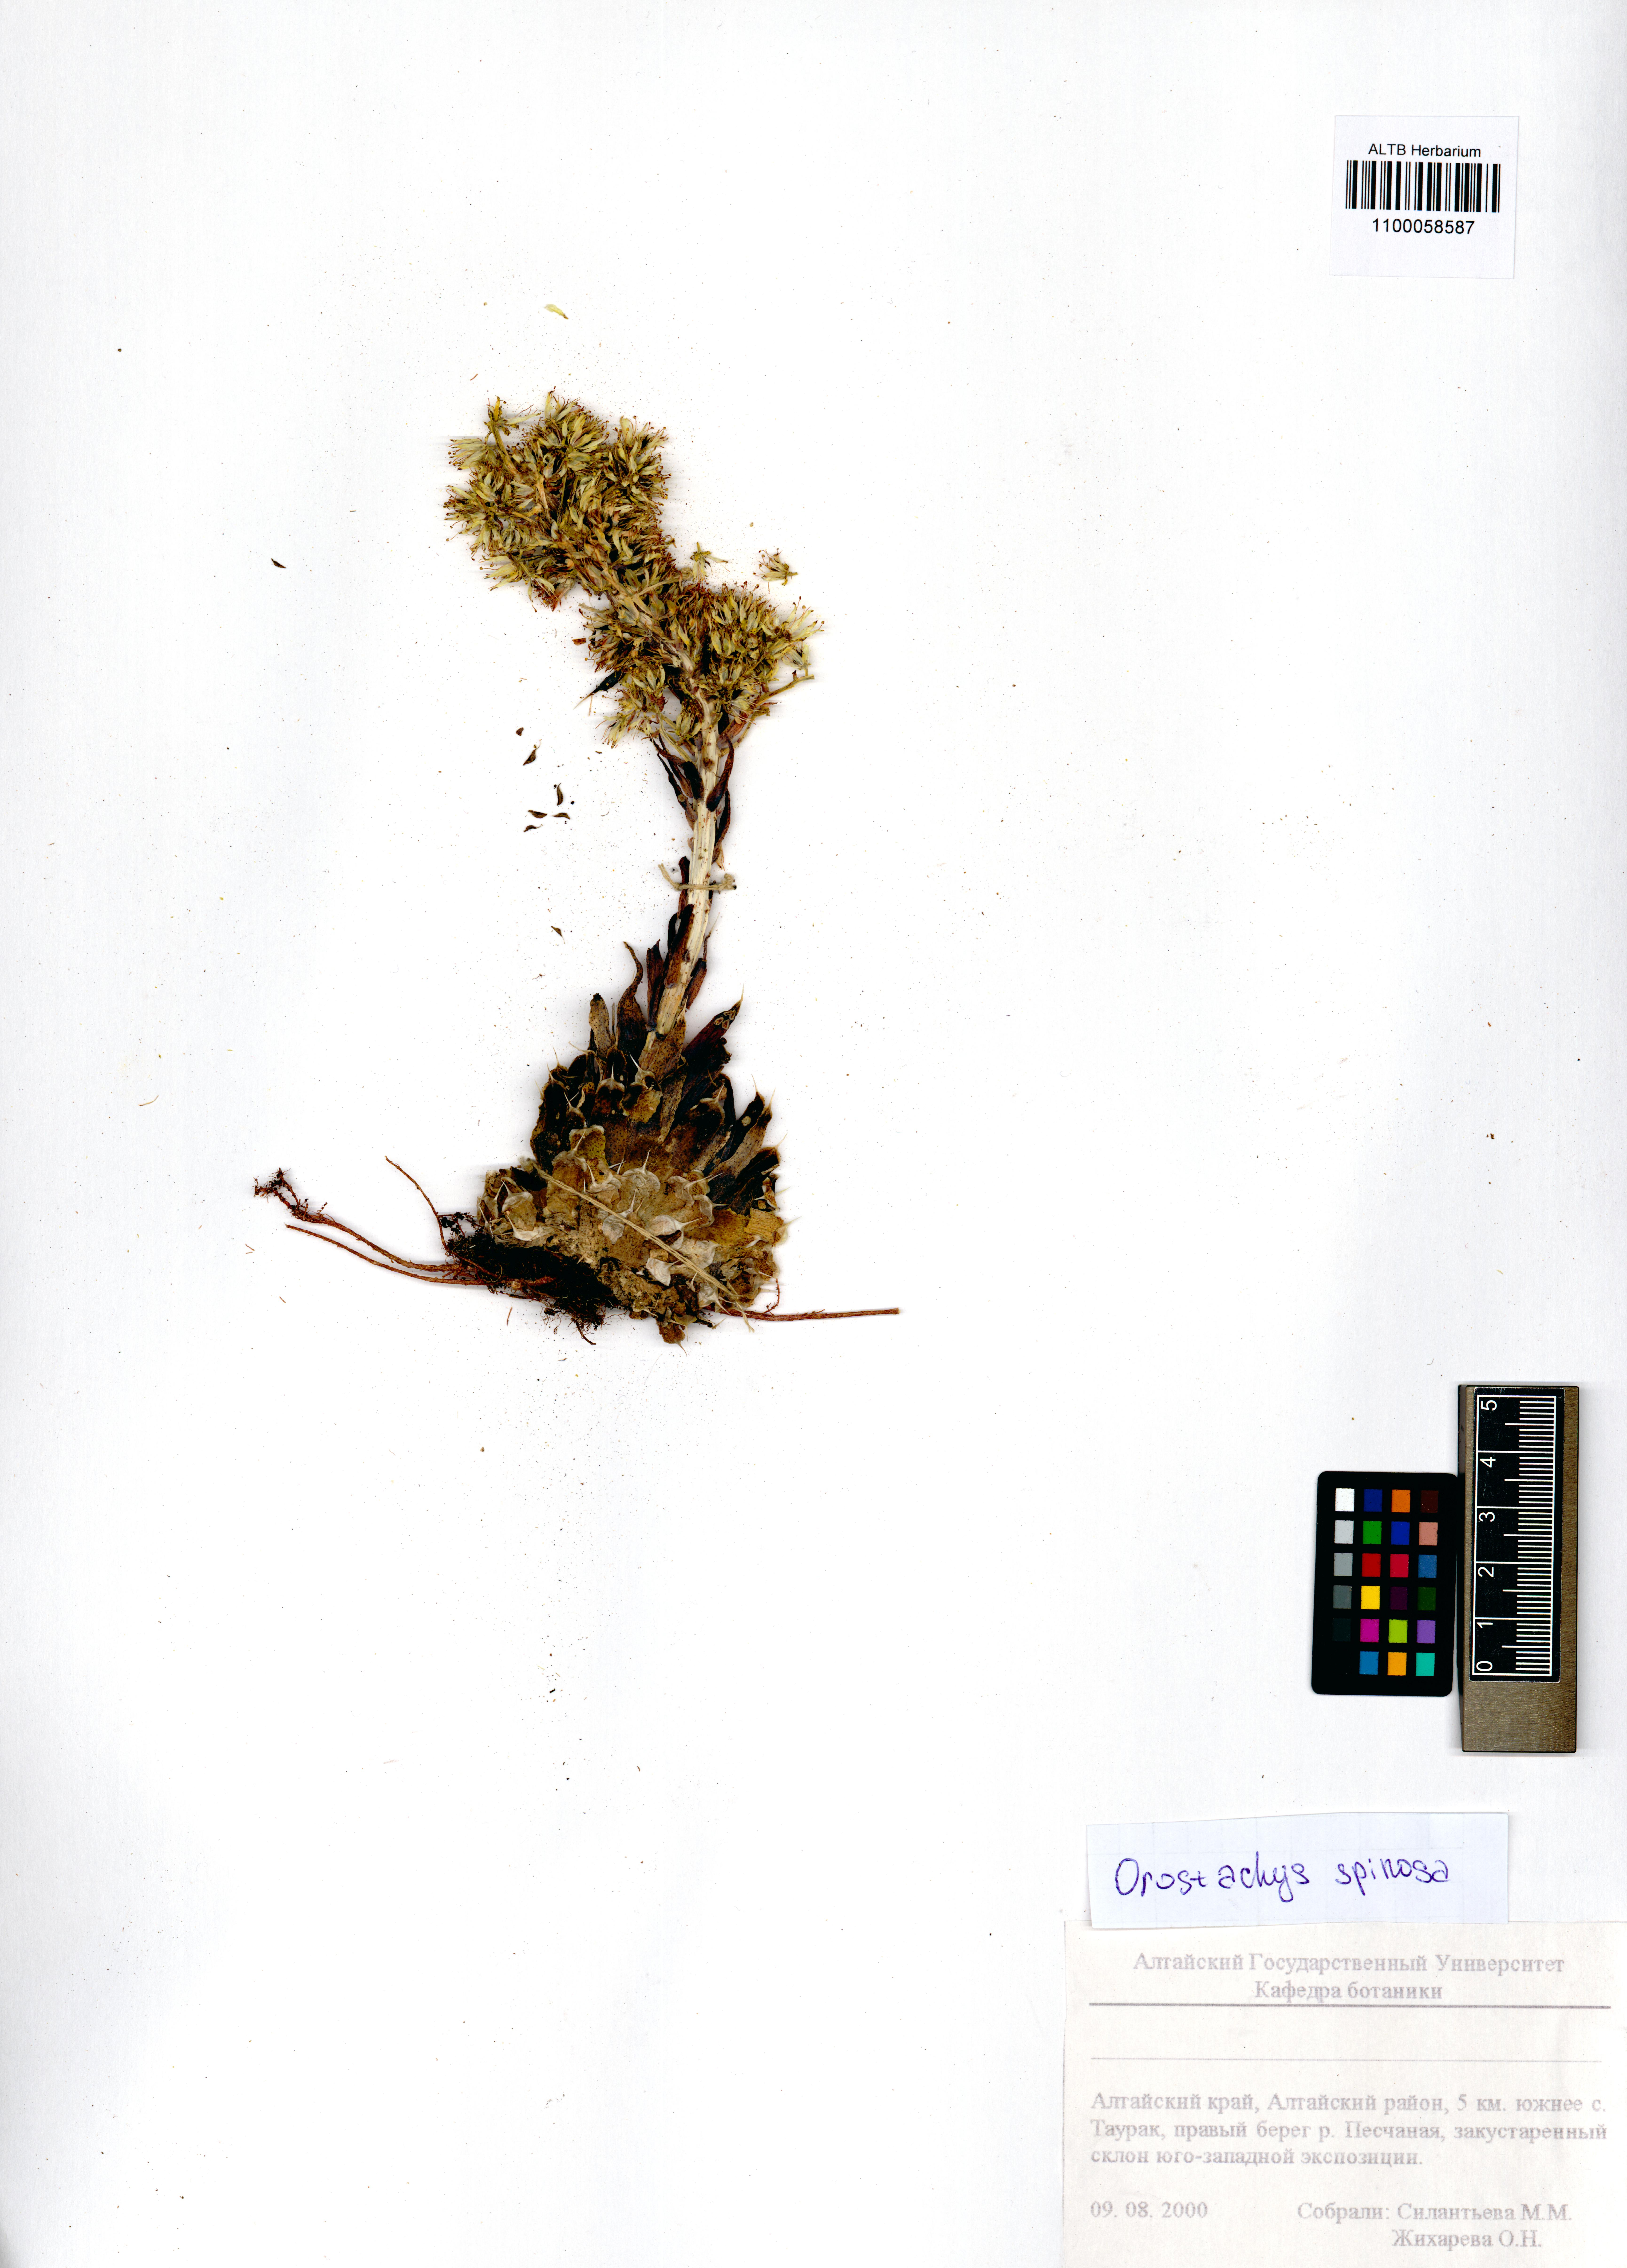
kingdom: Plantae
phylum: Tracheophyta
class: Magnoliopsida
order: Saxifragales
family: Crassulaceae
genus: Orostachys
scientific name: Orostachys spinosa
